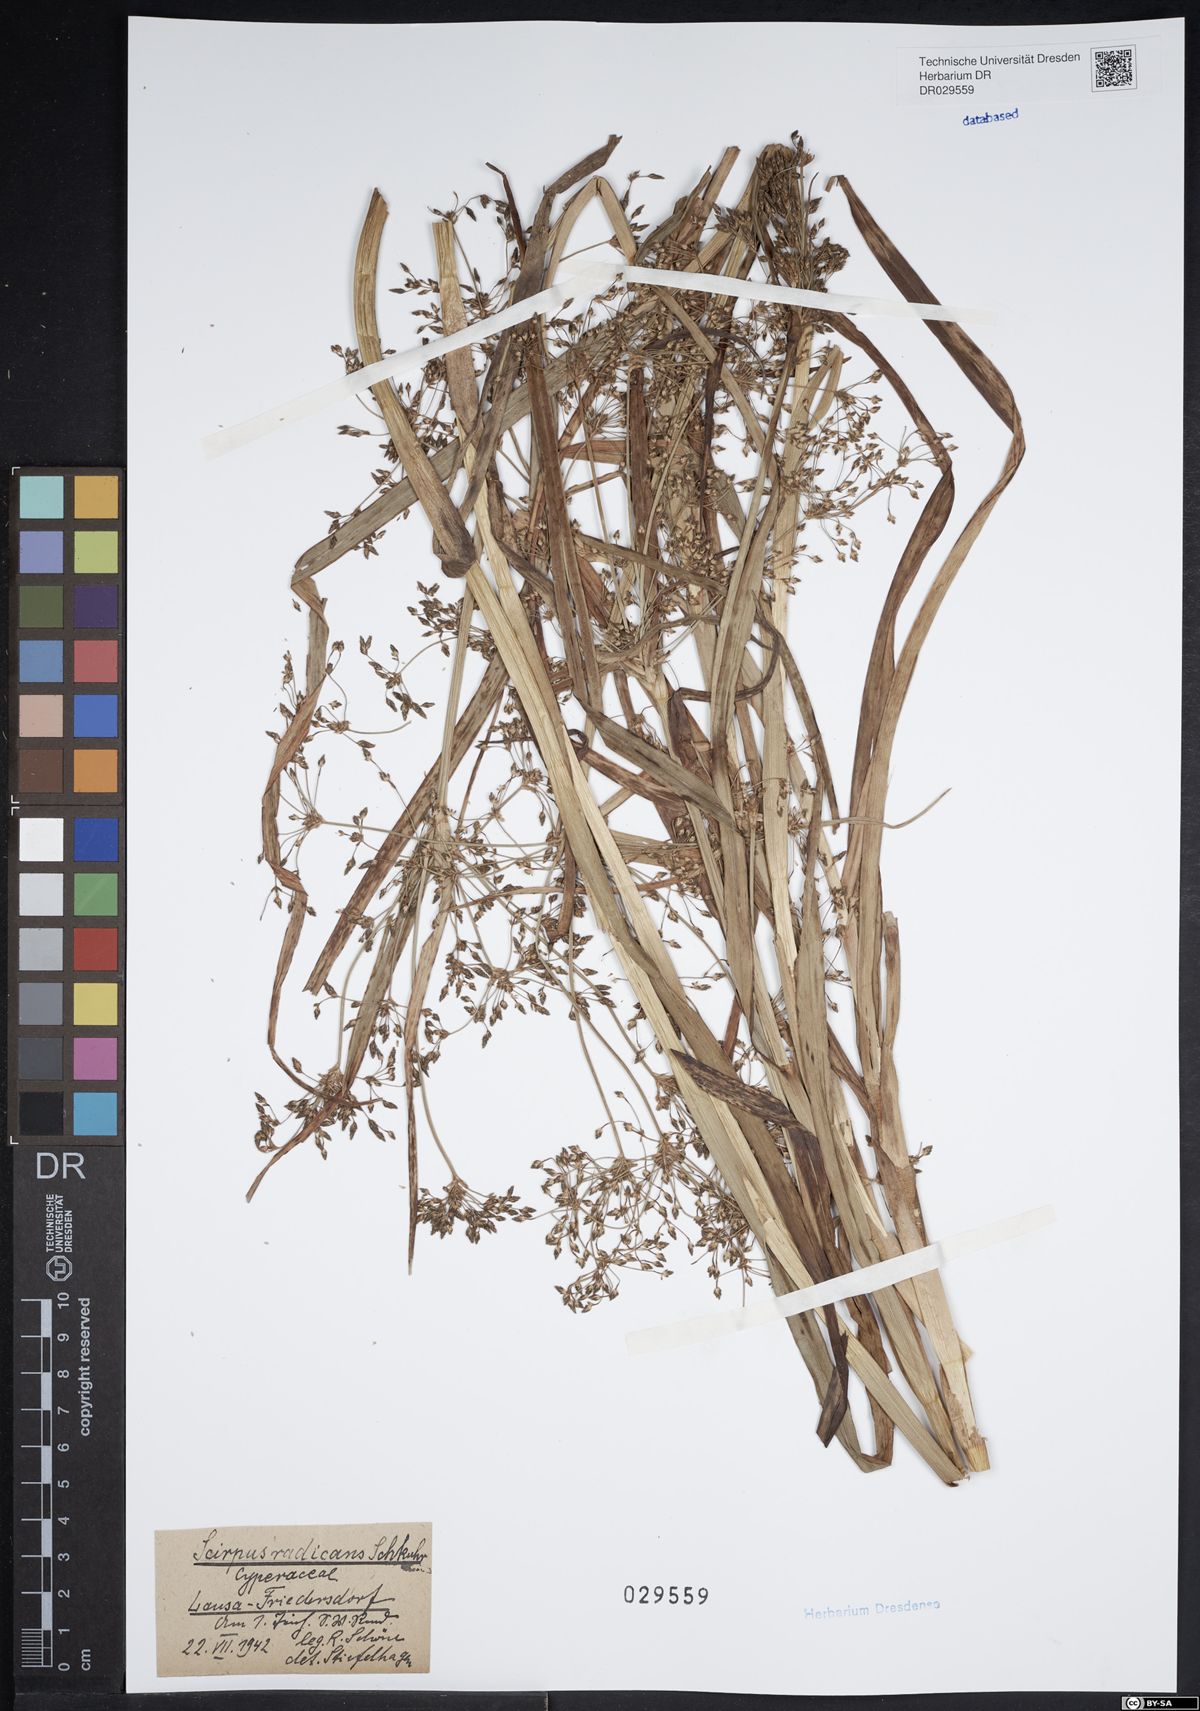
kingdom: Plantae
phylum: Tracheophyta
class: Liliopsida
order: Poales
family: Cyperaceae
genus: Scirpus
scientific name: Scirpus radicans
